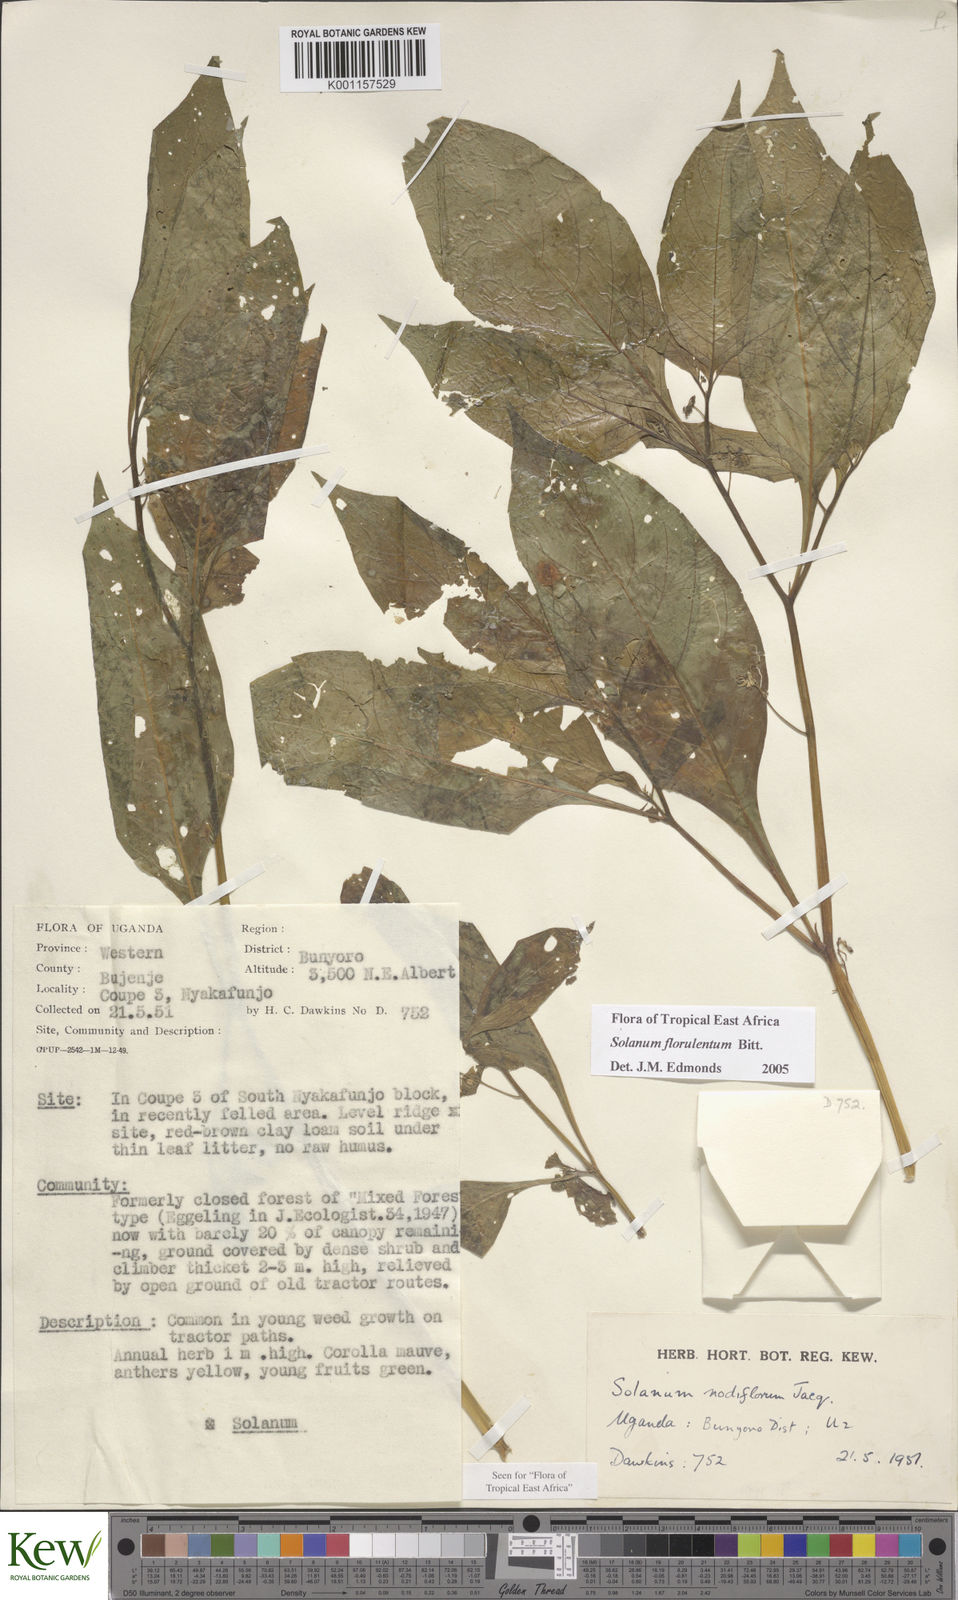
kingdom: Plantae
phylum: Tracheophyta
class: Magnoliopsida
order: Solanales
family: Solanaceae
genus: Solanum
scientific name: Solanum tarderemotum
